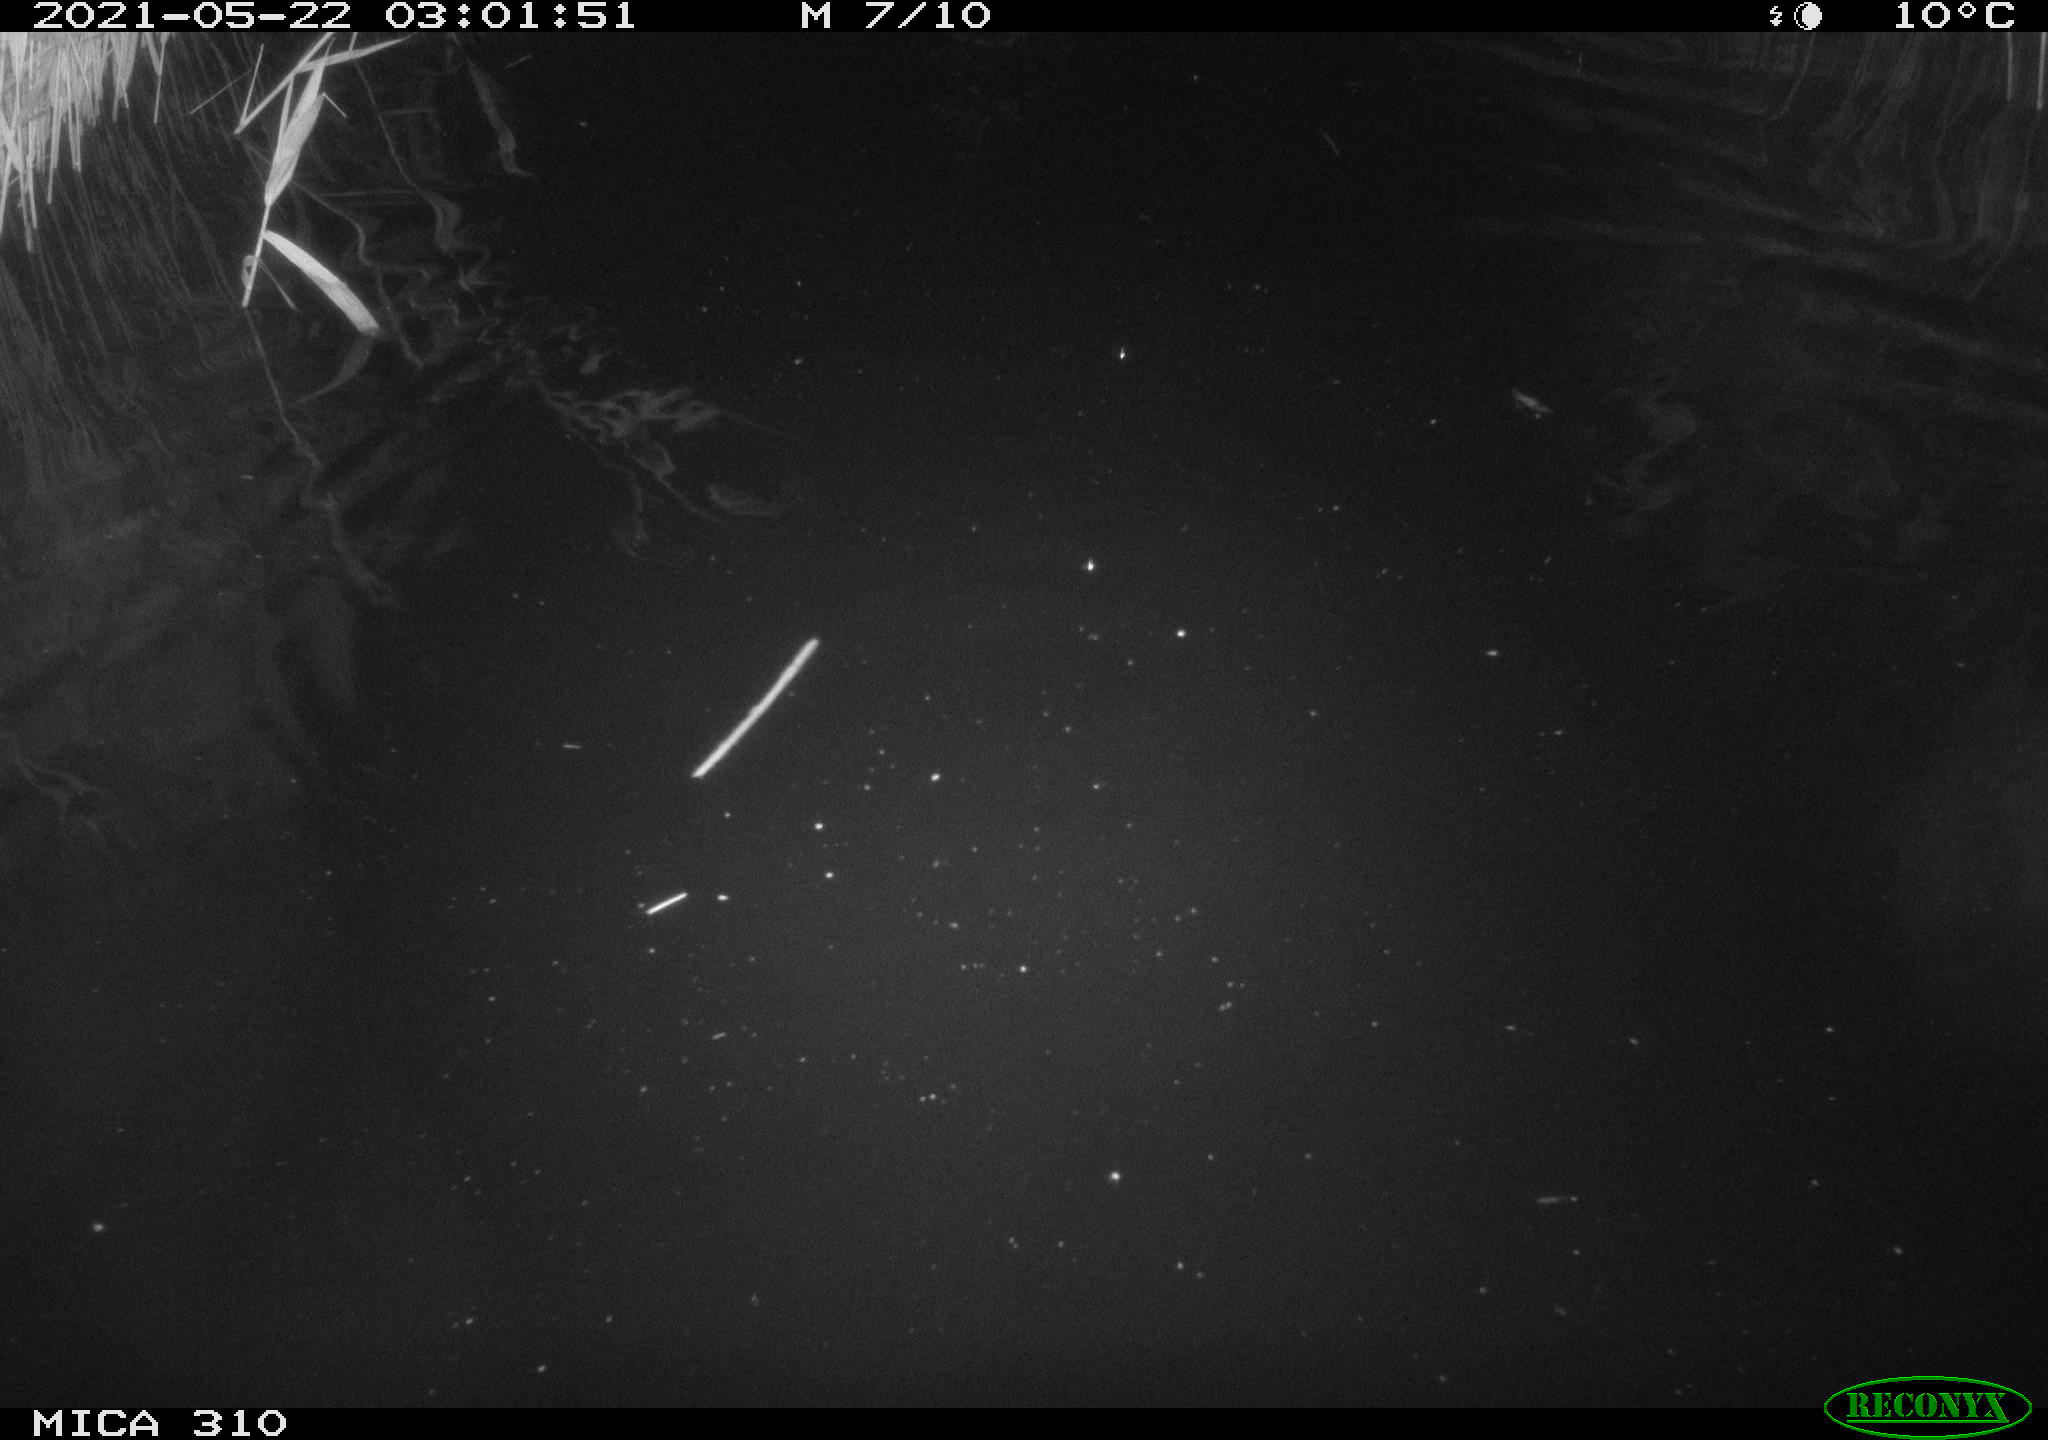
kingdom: Animalia
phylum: Chordata
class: Mammalia
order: Rodentia
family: Cricetidae
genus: Ondatra
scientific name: Ondatra zibethicus
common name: Muskrat
